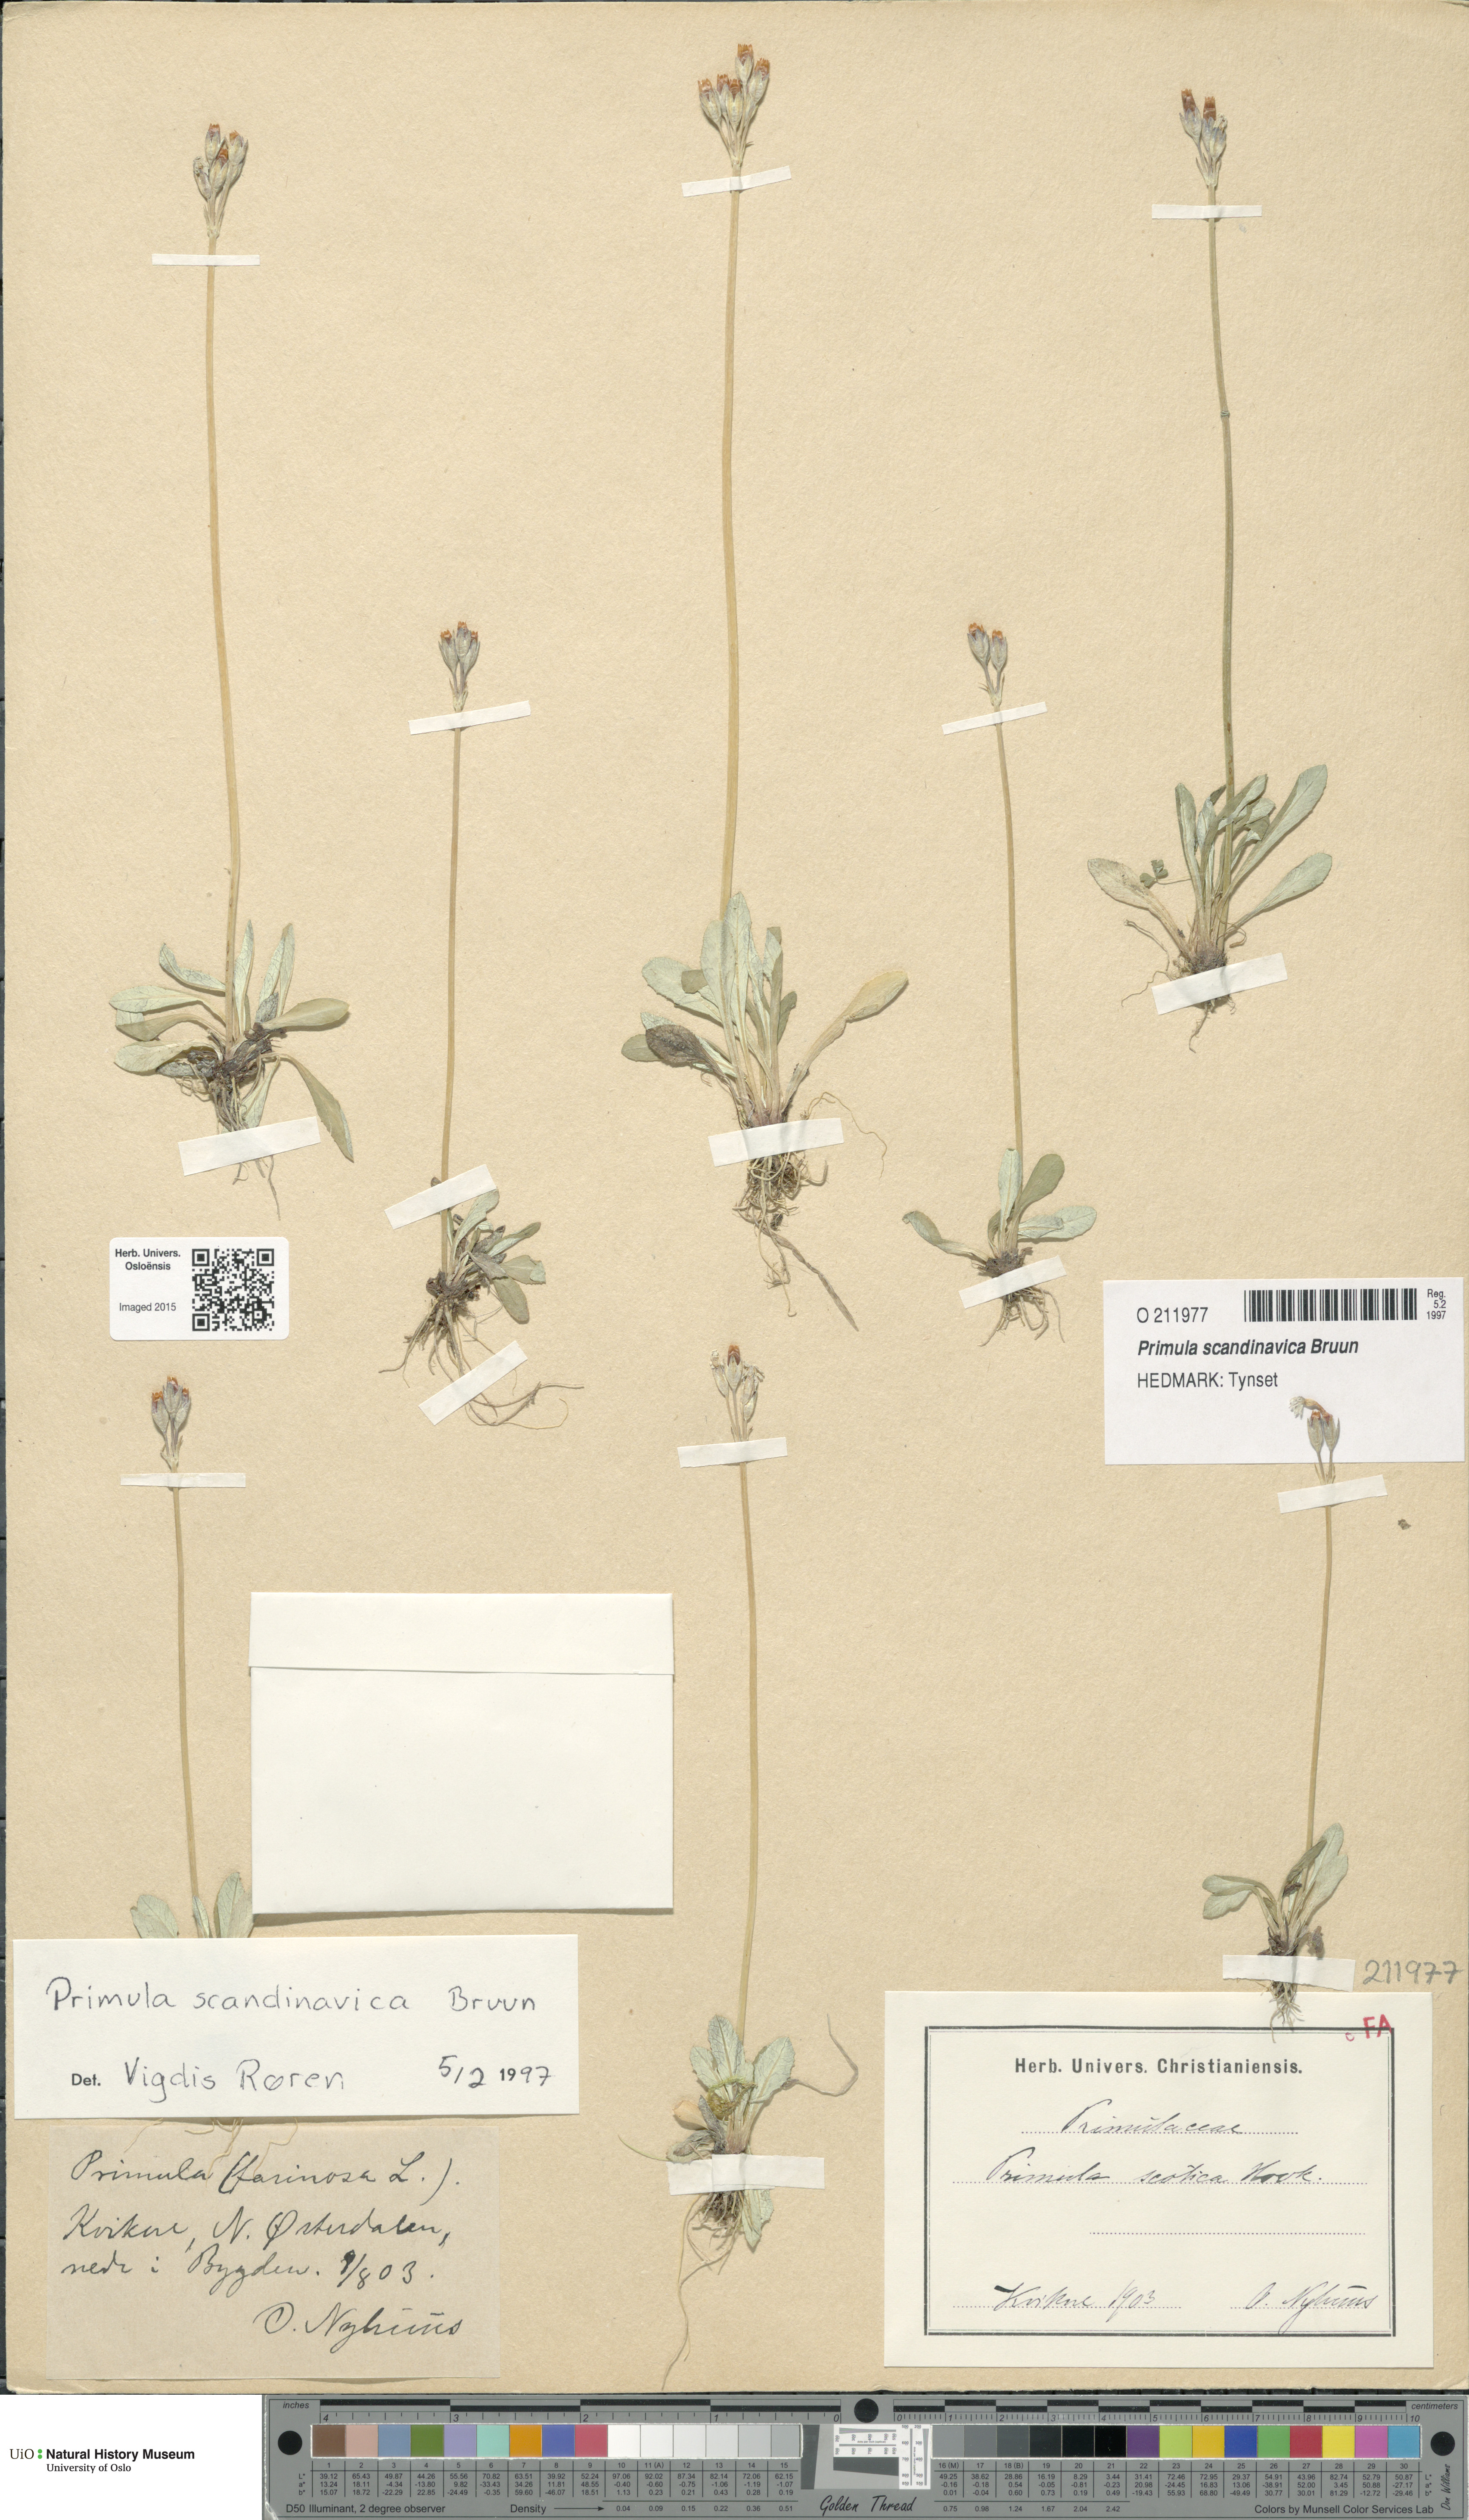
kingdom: Plantae
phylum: Tracheophyta
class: Magnoliopsida
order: Ericales
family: Primulaceae
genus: Primula
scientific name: Primula scandinavica
